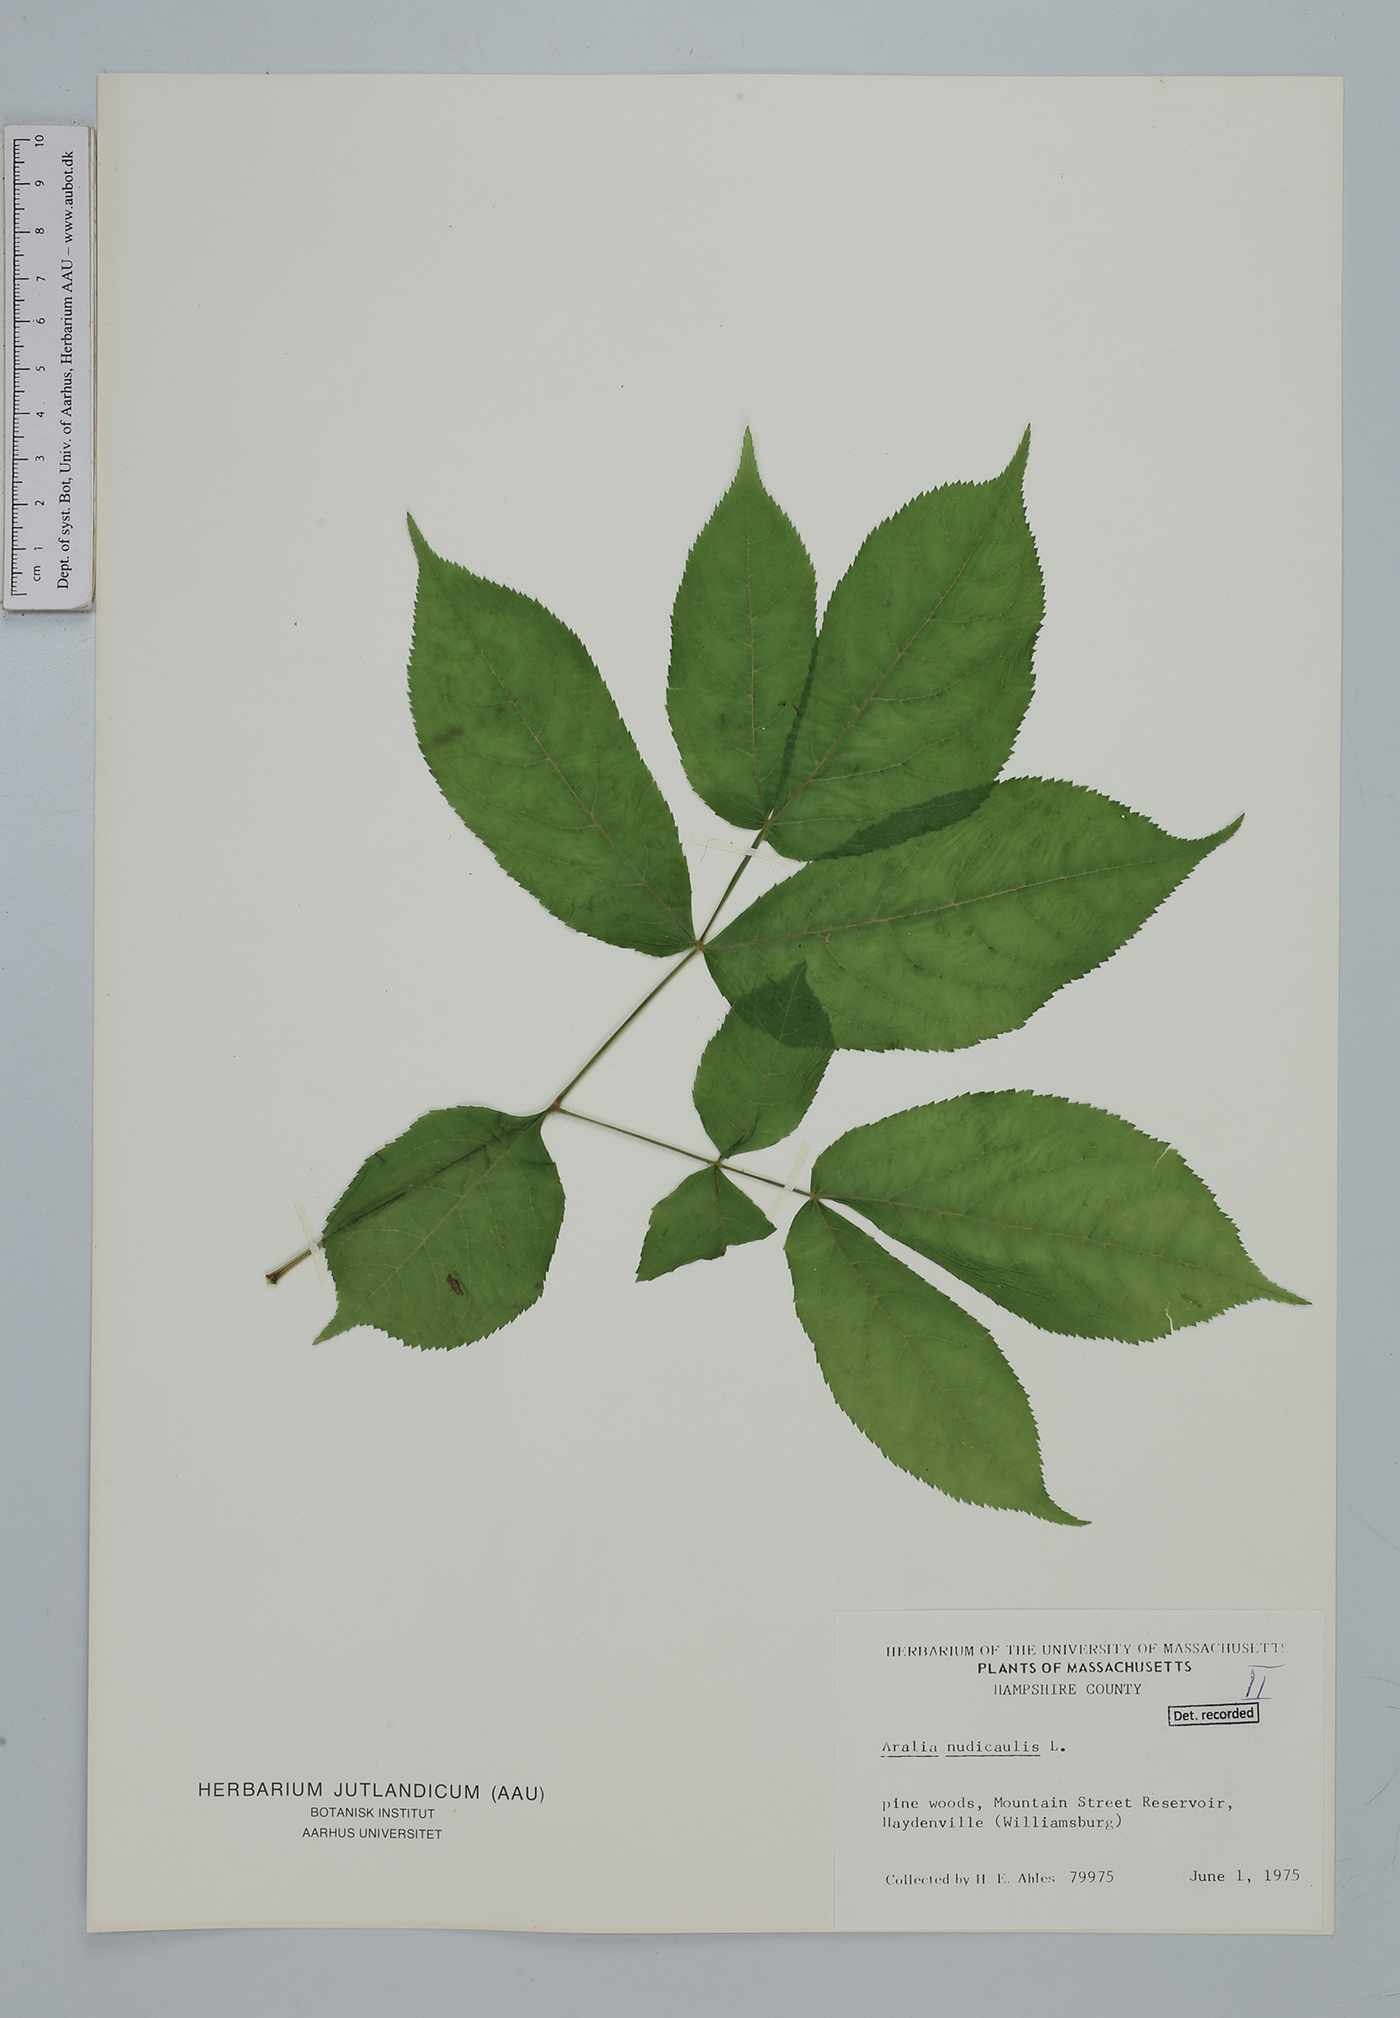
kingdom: Plantae
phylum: Tracheophyta
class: Magnoliopsida
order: Apiales
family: Araliaceae
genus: Aralia
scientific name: Aralia nudicaulis
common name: Wild sarsaparilla
